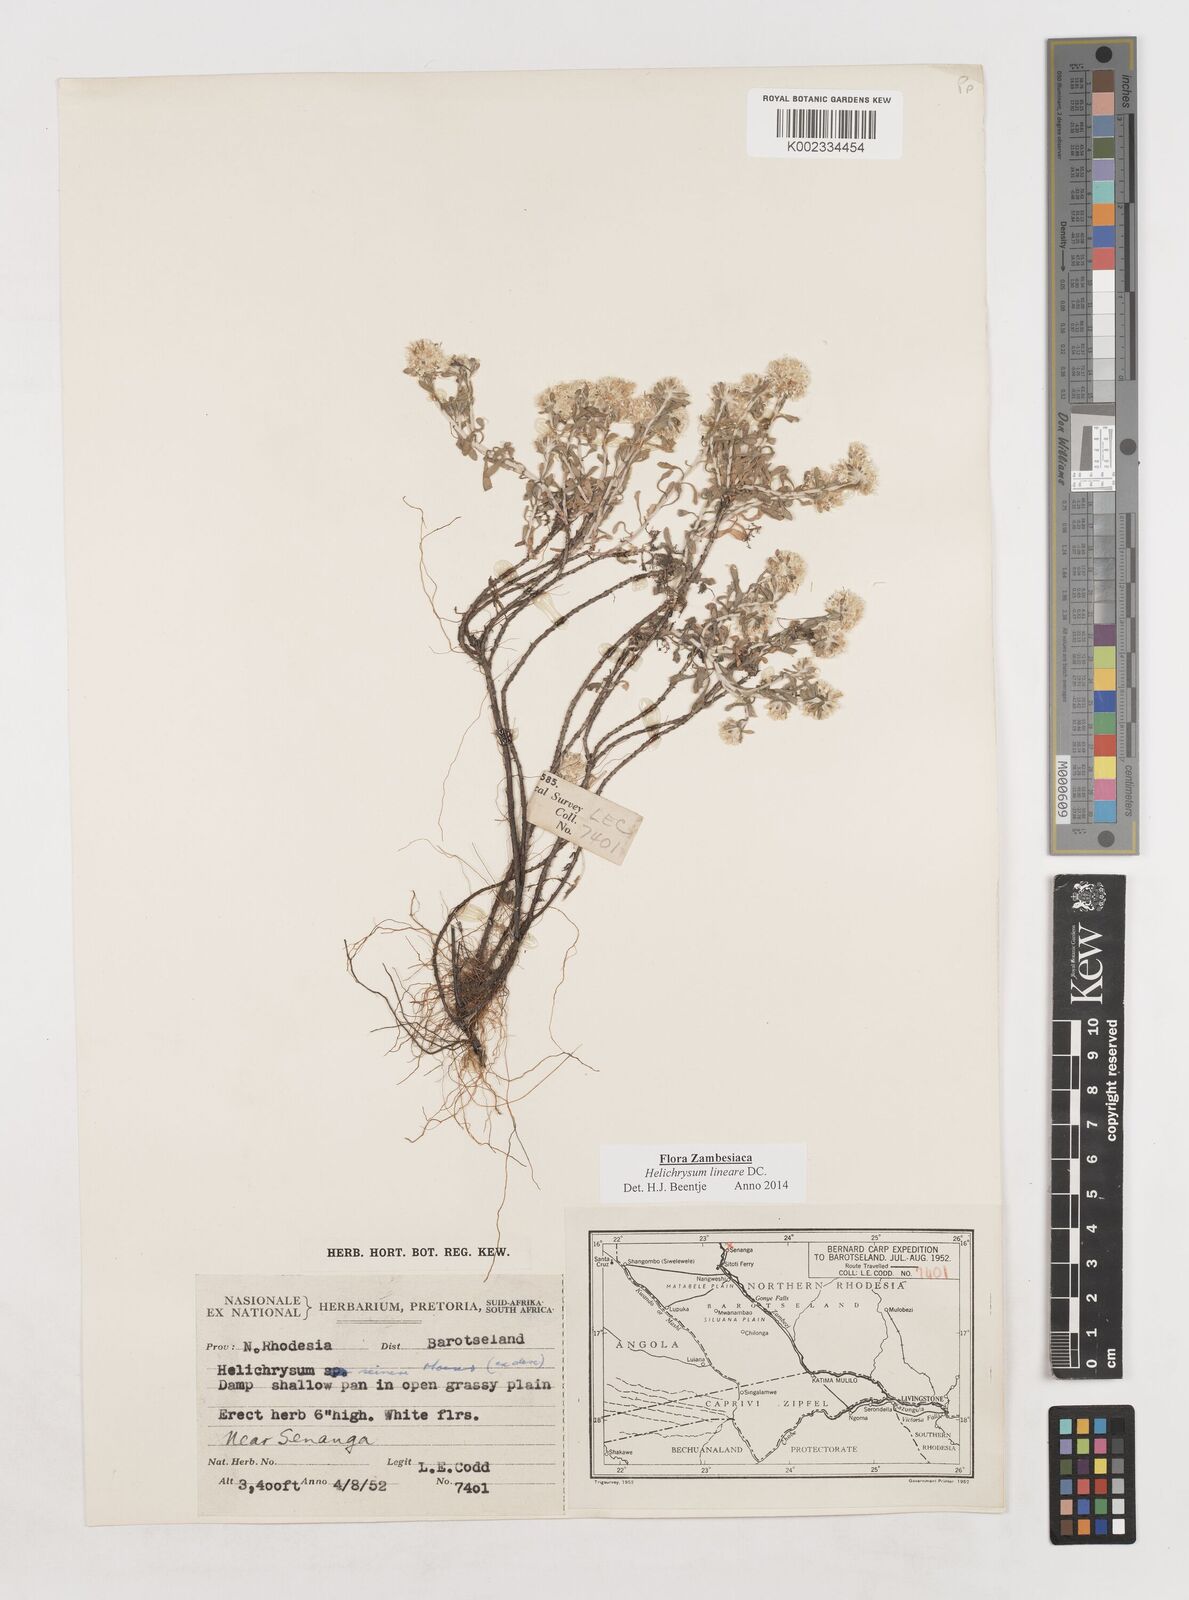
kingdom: Plantae
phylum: Tracheophyta
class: Magnoliopsida
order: Asterales
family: Asteraceae
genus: Helichrysum
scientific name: Helichrysum lineare
